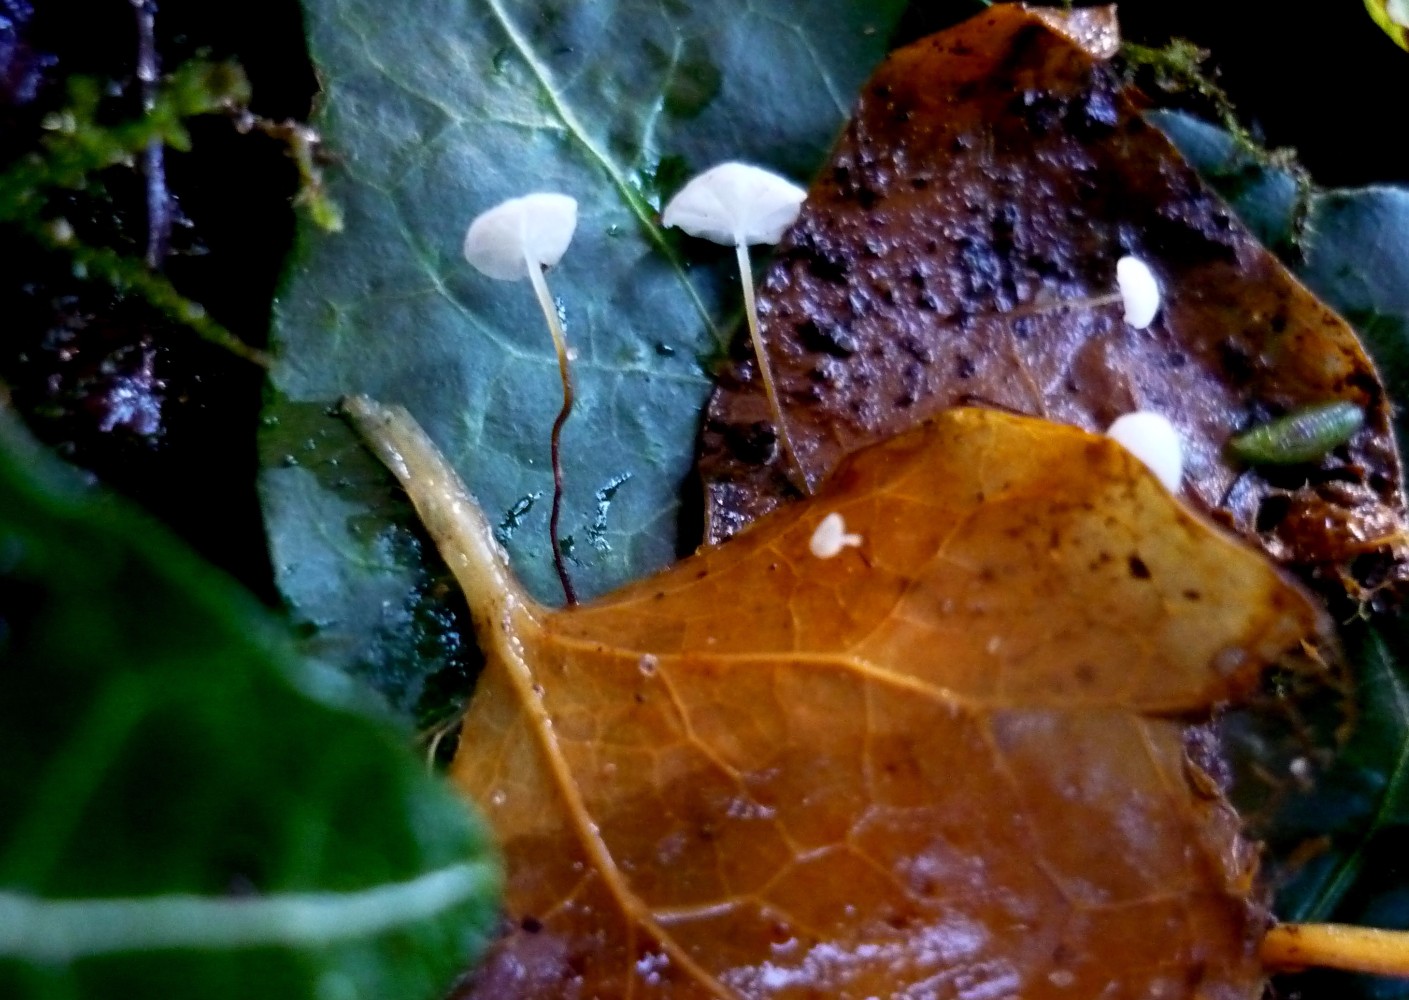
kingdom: Fungi
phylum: Basidiomycota
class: Agaricomycetes
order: Agaricales
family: Marasmiaceae
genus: Marasmius
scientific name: Marasmius epiphylloides
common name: vedbend-bruskhat
